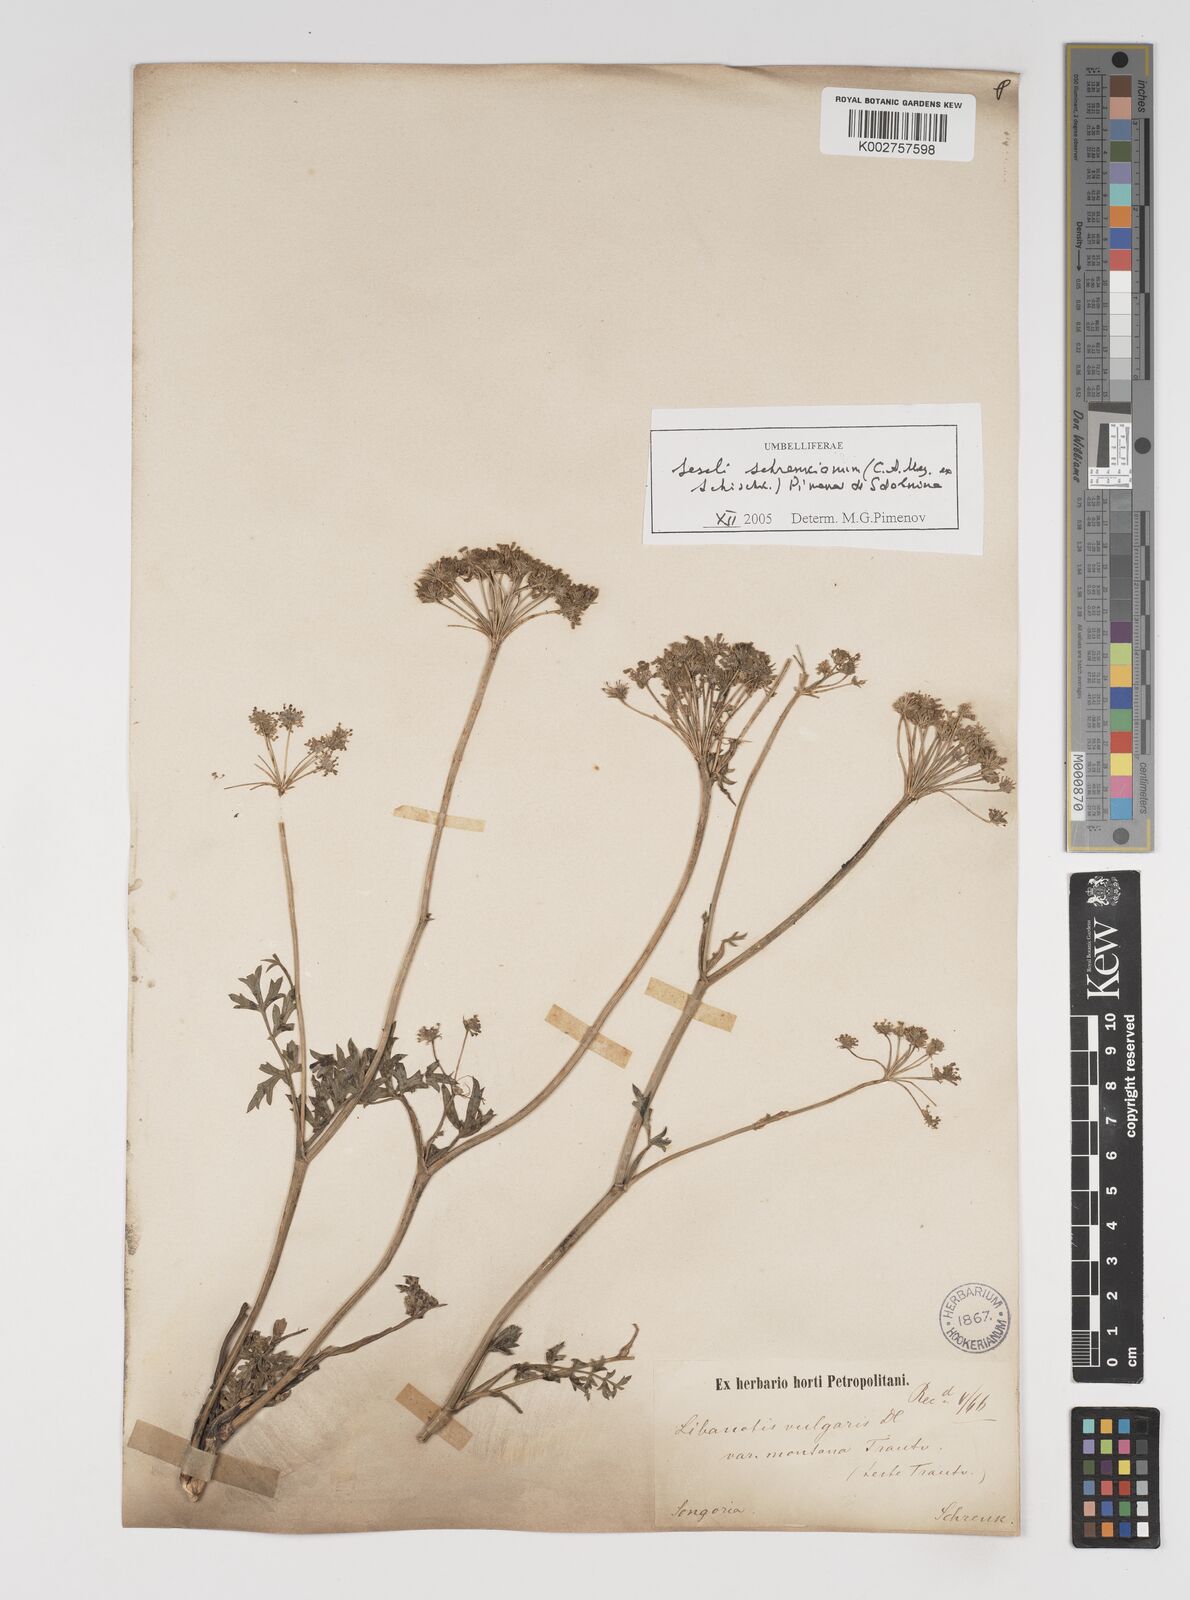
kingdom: Plantae
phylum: Tracheophyta
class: Magnoliopsida
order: Apiales
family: Apiaceae
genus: Seseli
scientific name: Seseli schrenkianum
